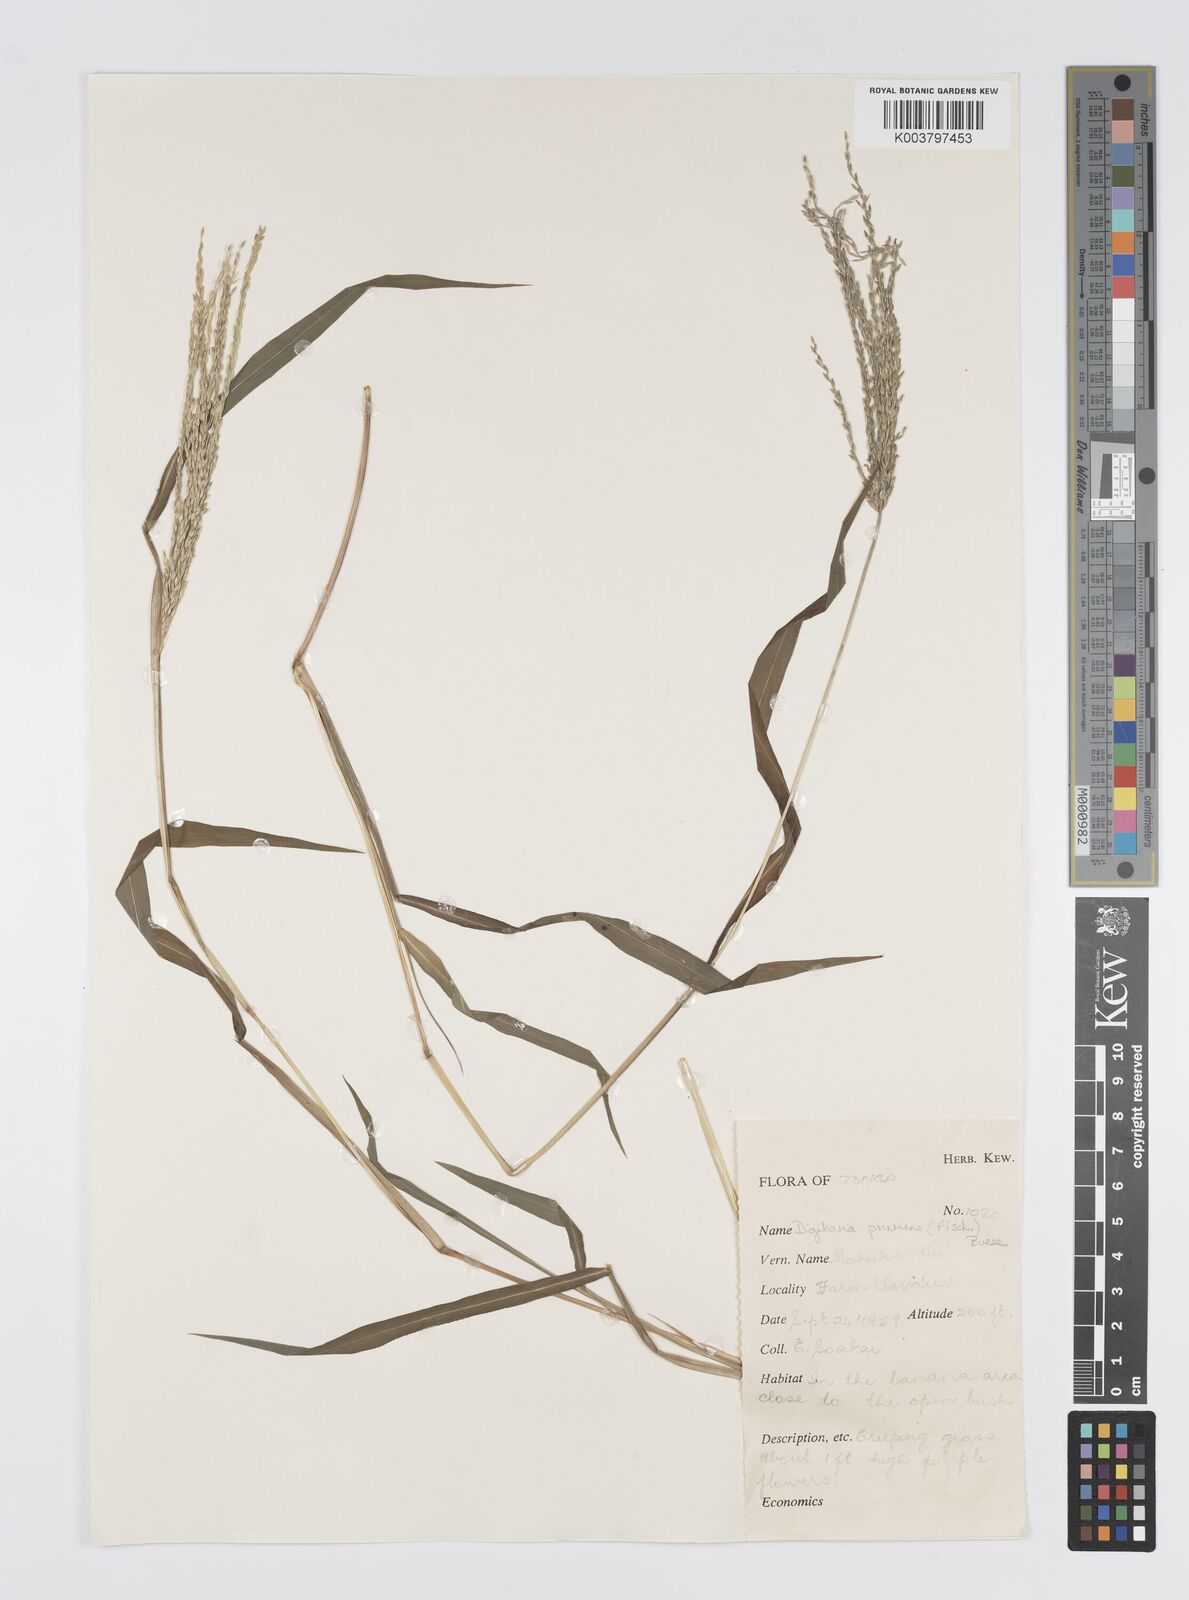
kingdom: Plantae
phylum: Tracheophyta
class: Liliopsida
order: Poales
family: Poaceae
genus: Digitaria
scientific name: Digitaria setigera
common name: East indian crabgrass
